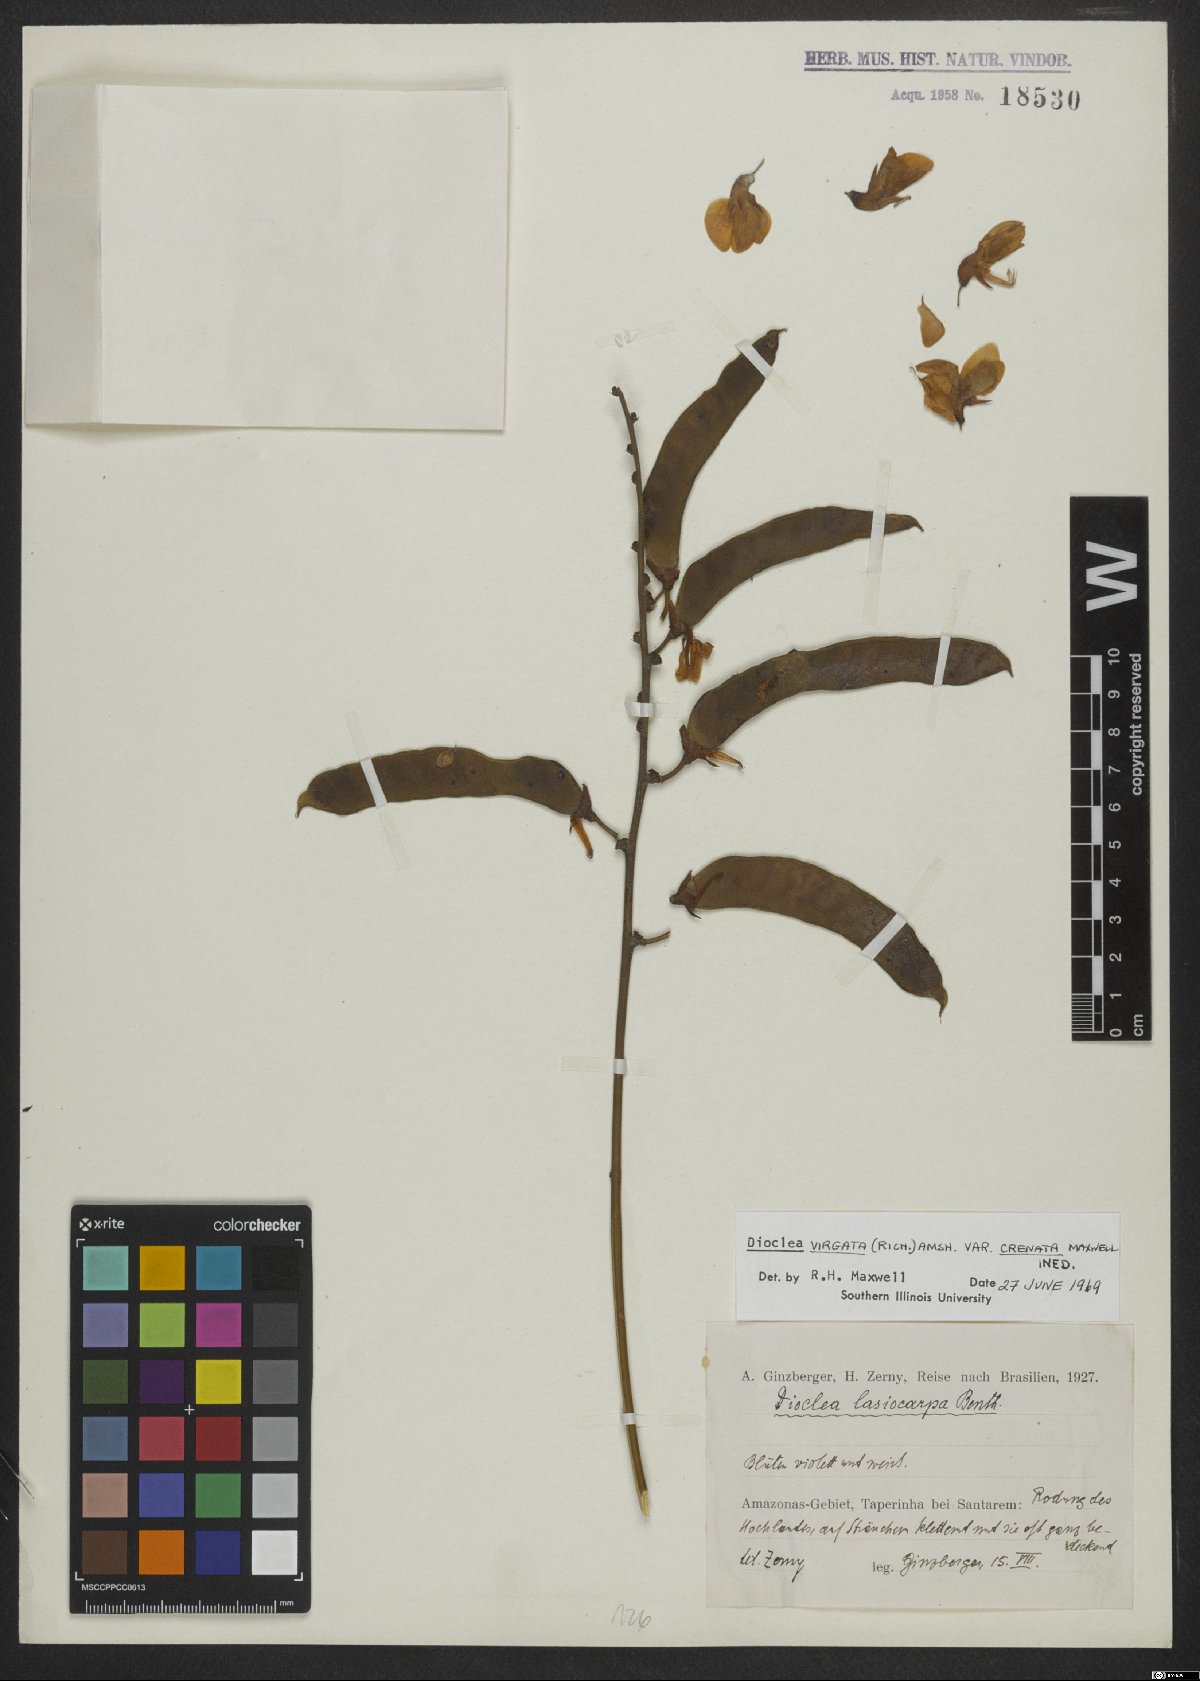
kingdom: Plantae
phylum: Tracheophyta
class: Magnoliopsida
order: Fabales
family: Fabaceae
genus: Dioclea
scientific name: Dioclea virgata
